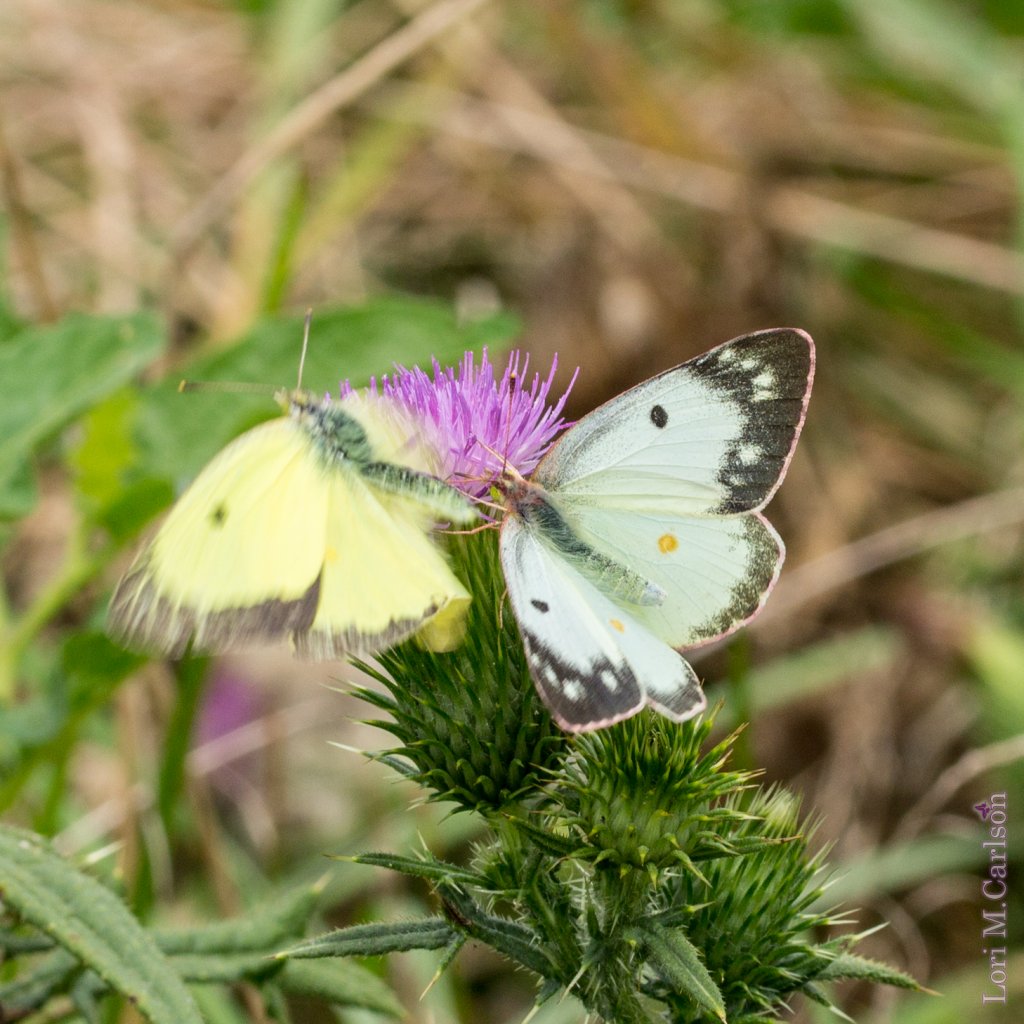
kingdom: Animalia
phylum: Arthropoda
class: Insecta
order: Lepidoptera
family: Pieridae
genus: Colias
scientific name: Colias philodice
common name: Clouded Sulphur
